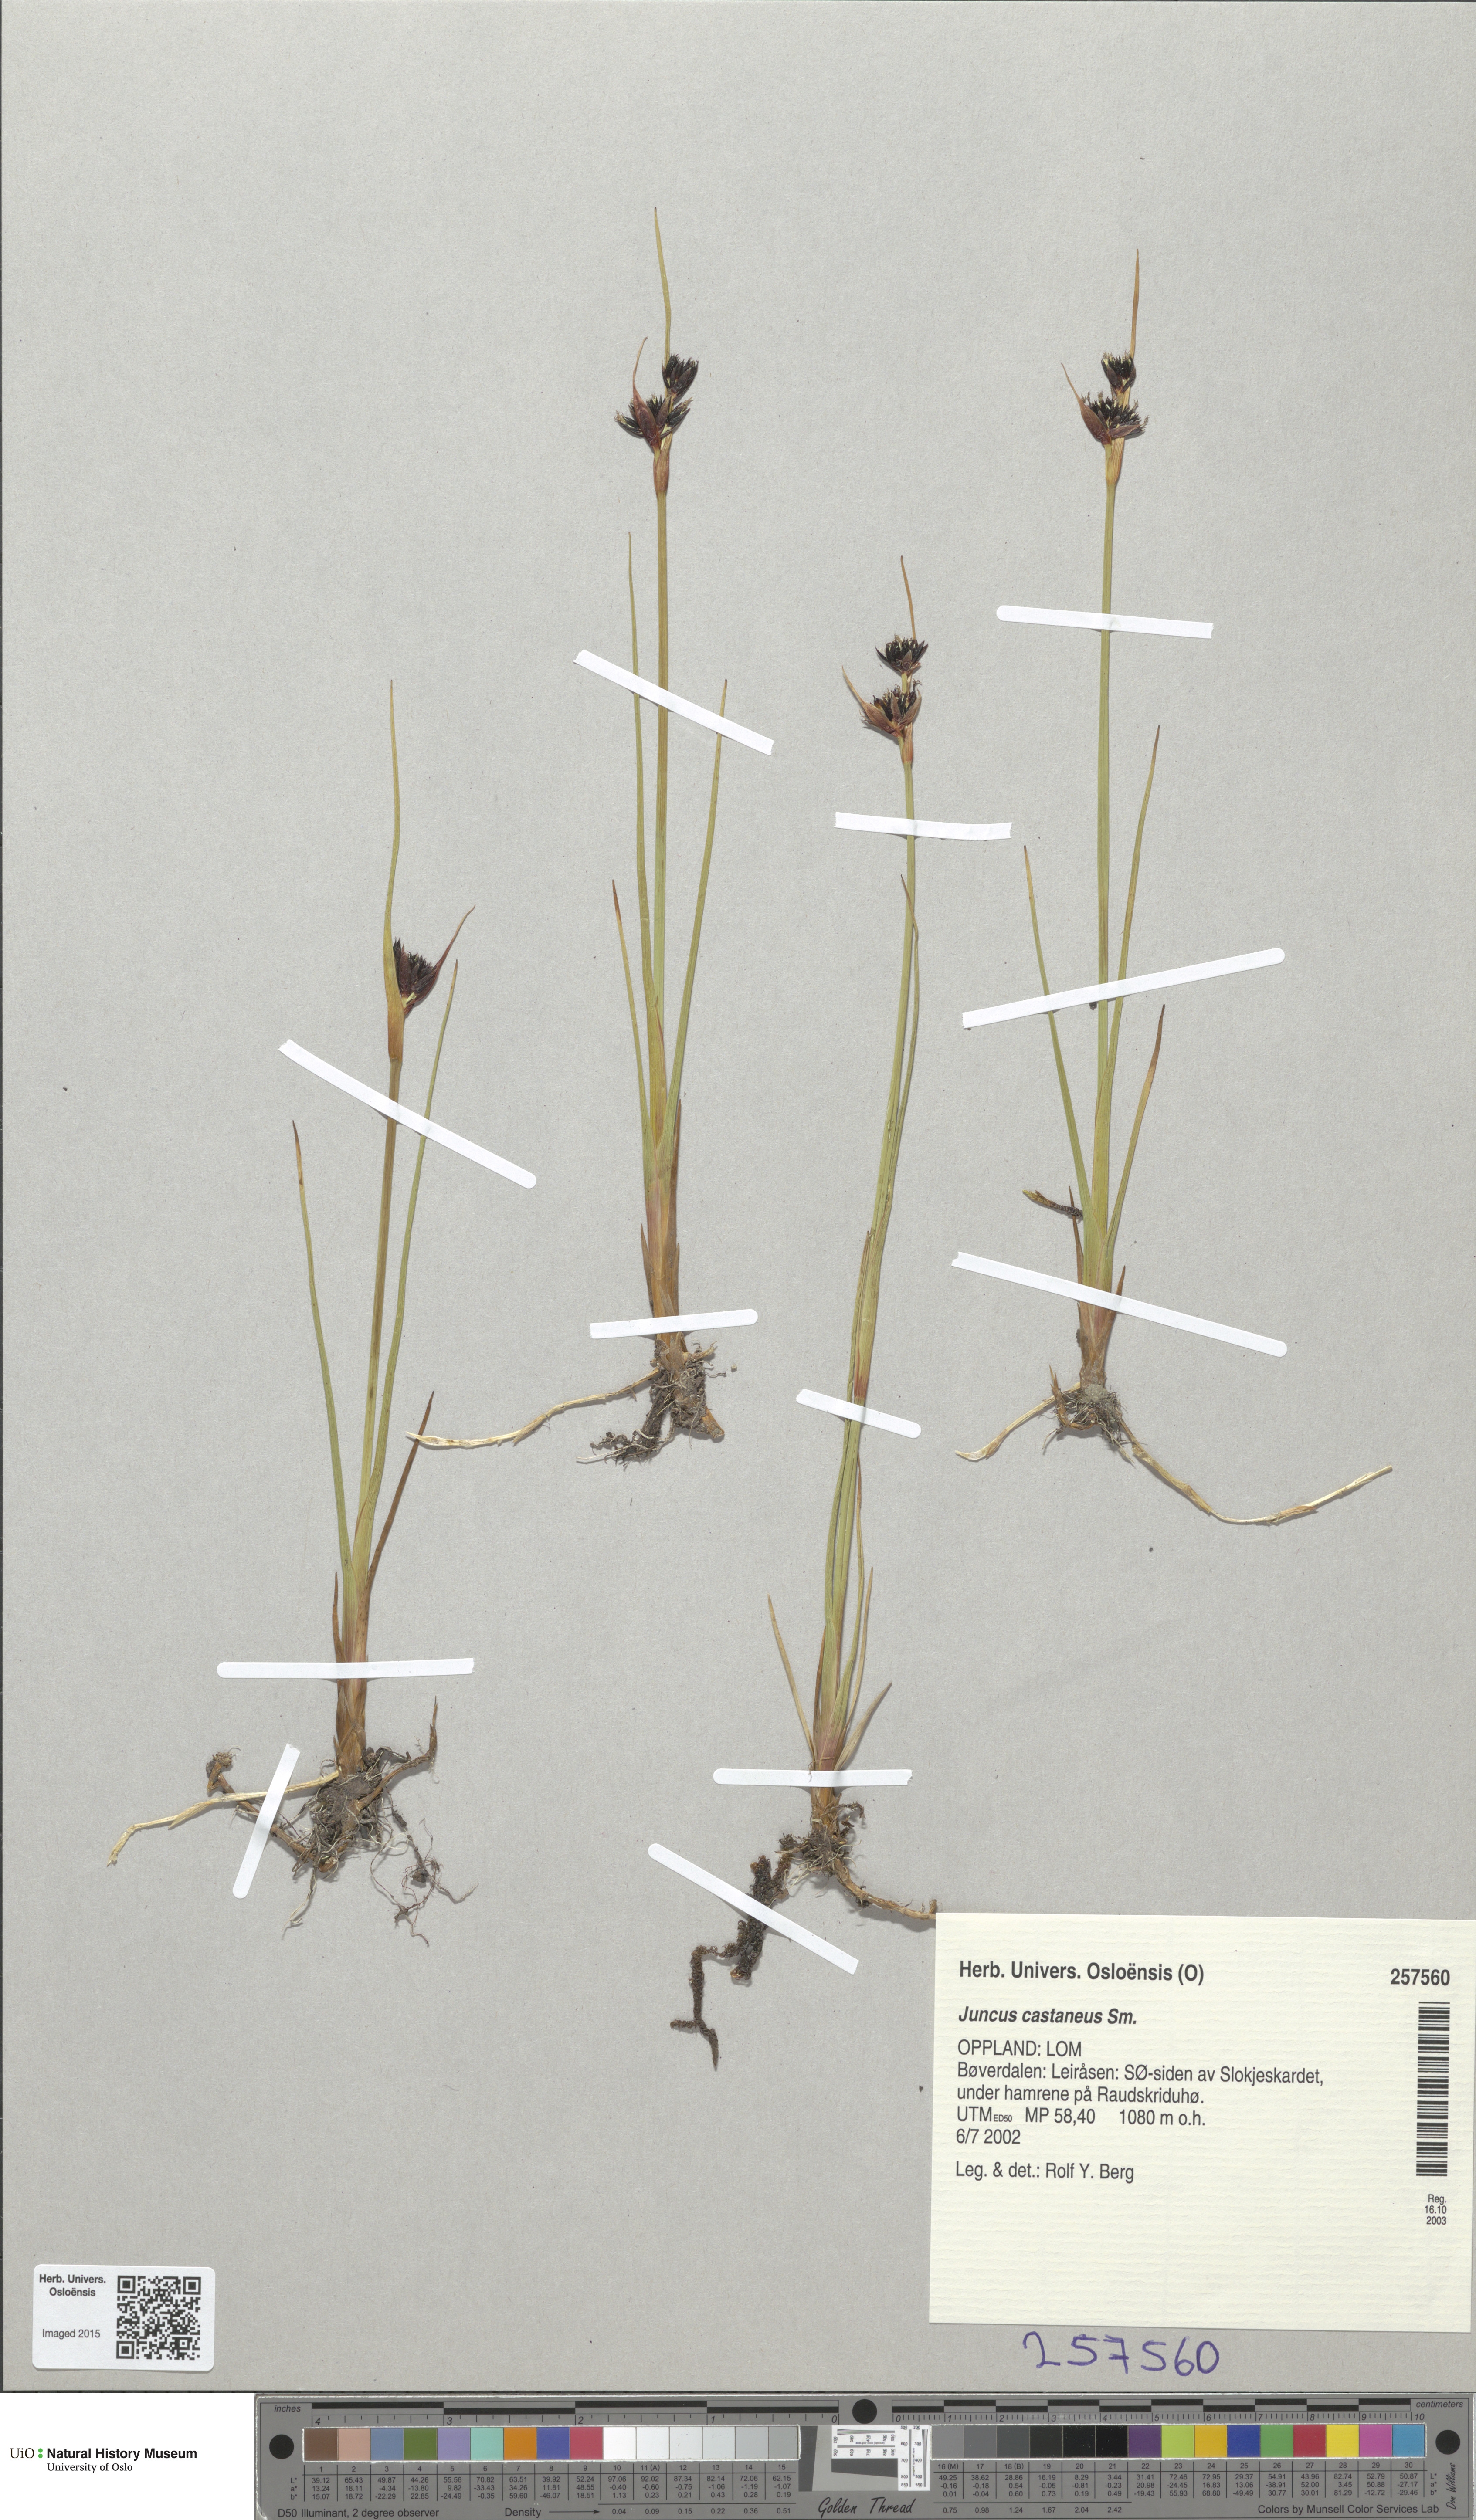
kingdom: Plantae
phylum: Tracheophyta
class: Liliopsida
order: Poales
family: Juncaceae
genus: Juncus
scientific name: Juncus castaneus
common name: Chestnut rush
